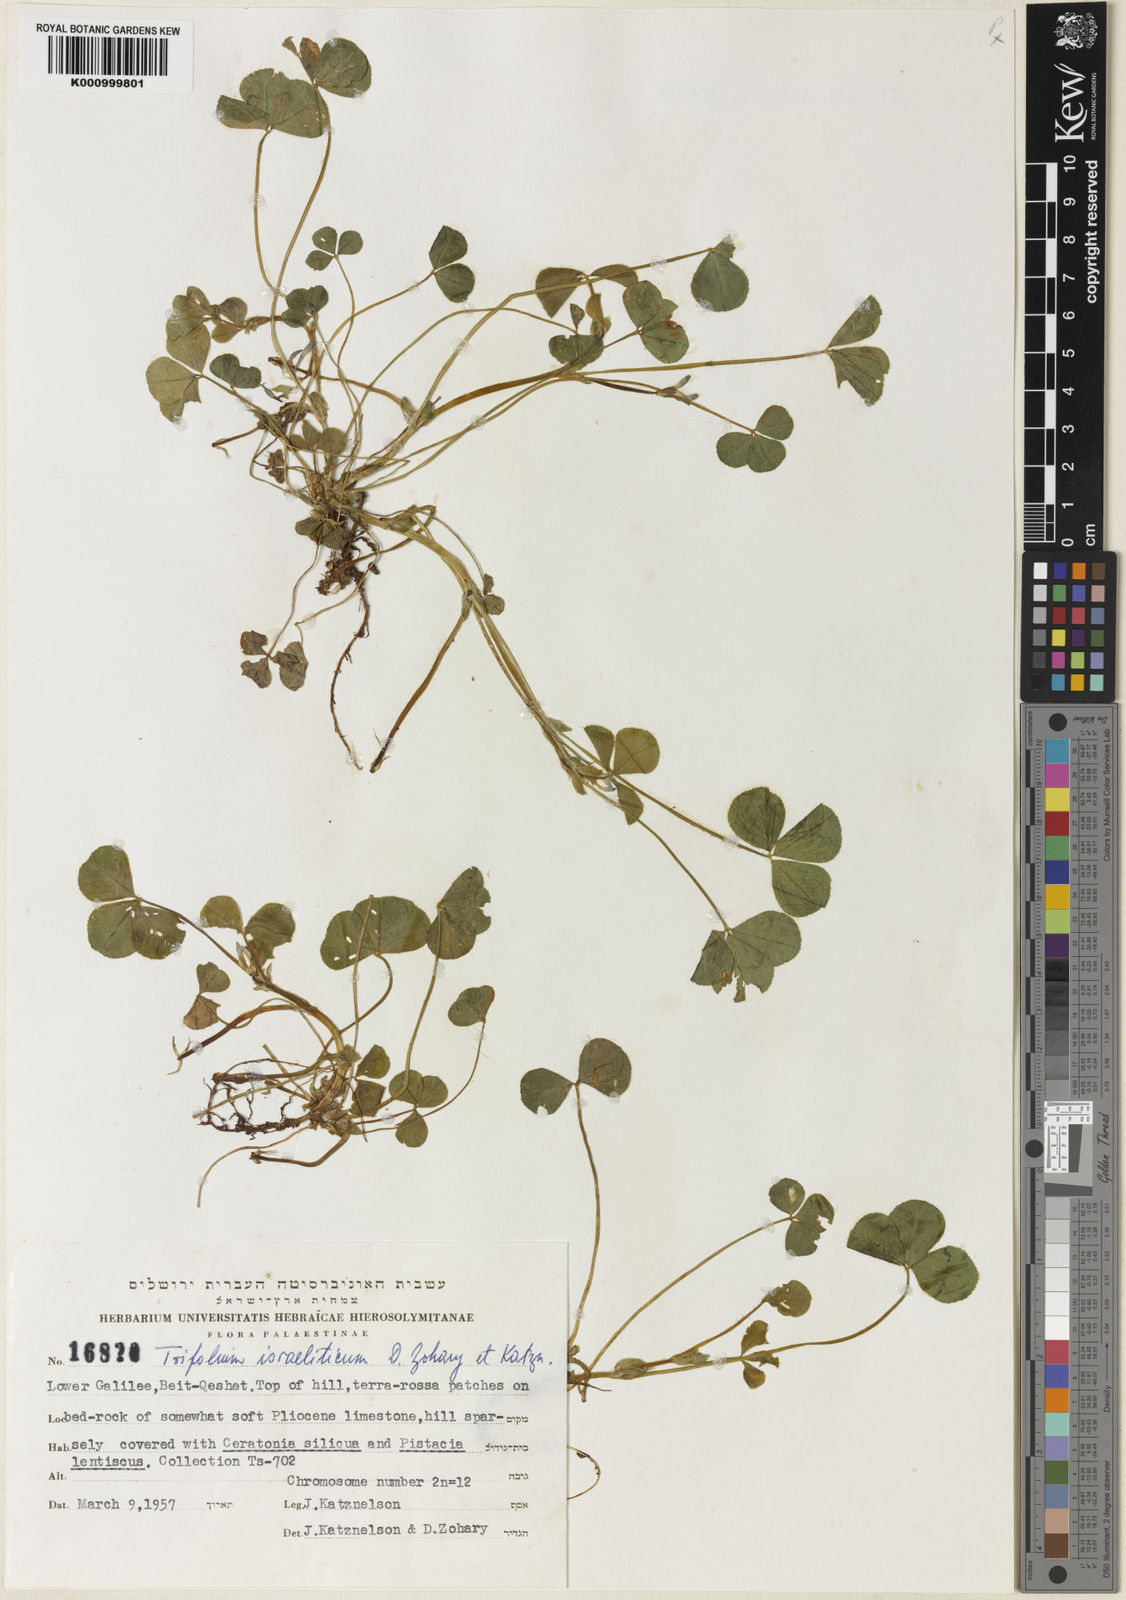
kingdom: Plantae
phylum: Tracheophyta
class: Magnoliopsida
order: Fabales
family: Fabaceae
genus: Trifolium
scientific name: Trifolium israeliticum
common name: Israel clover
